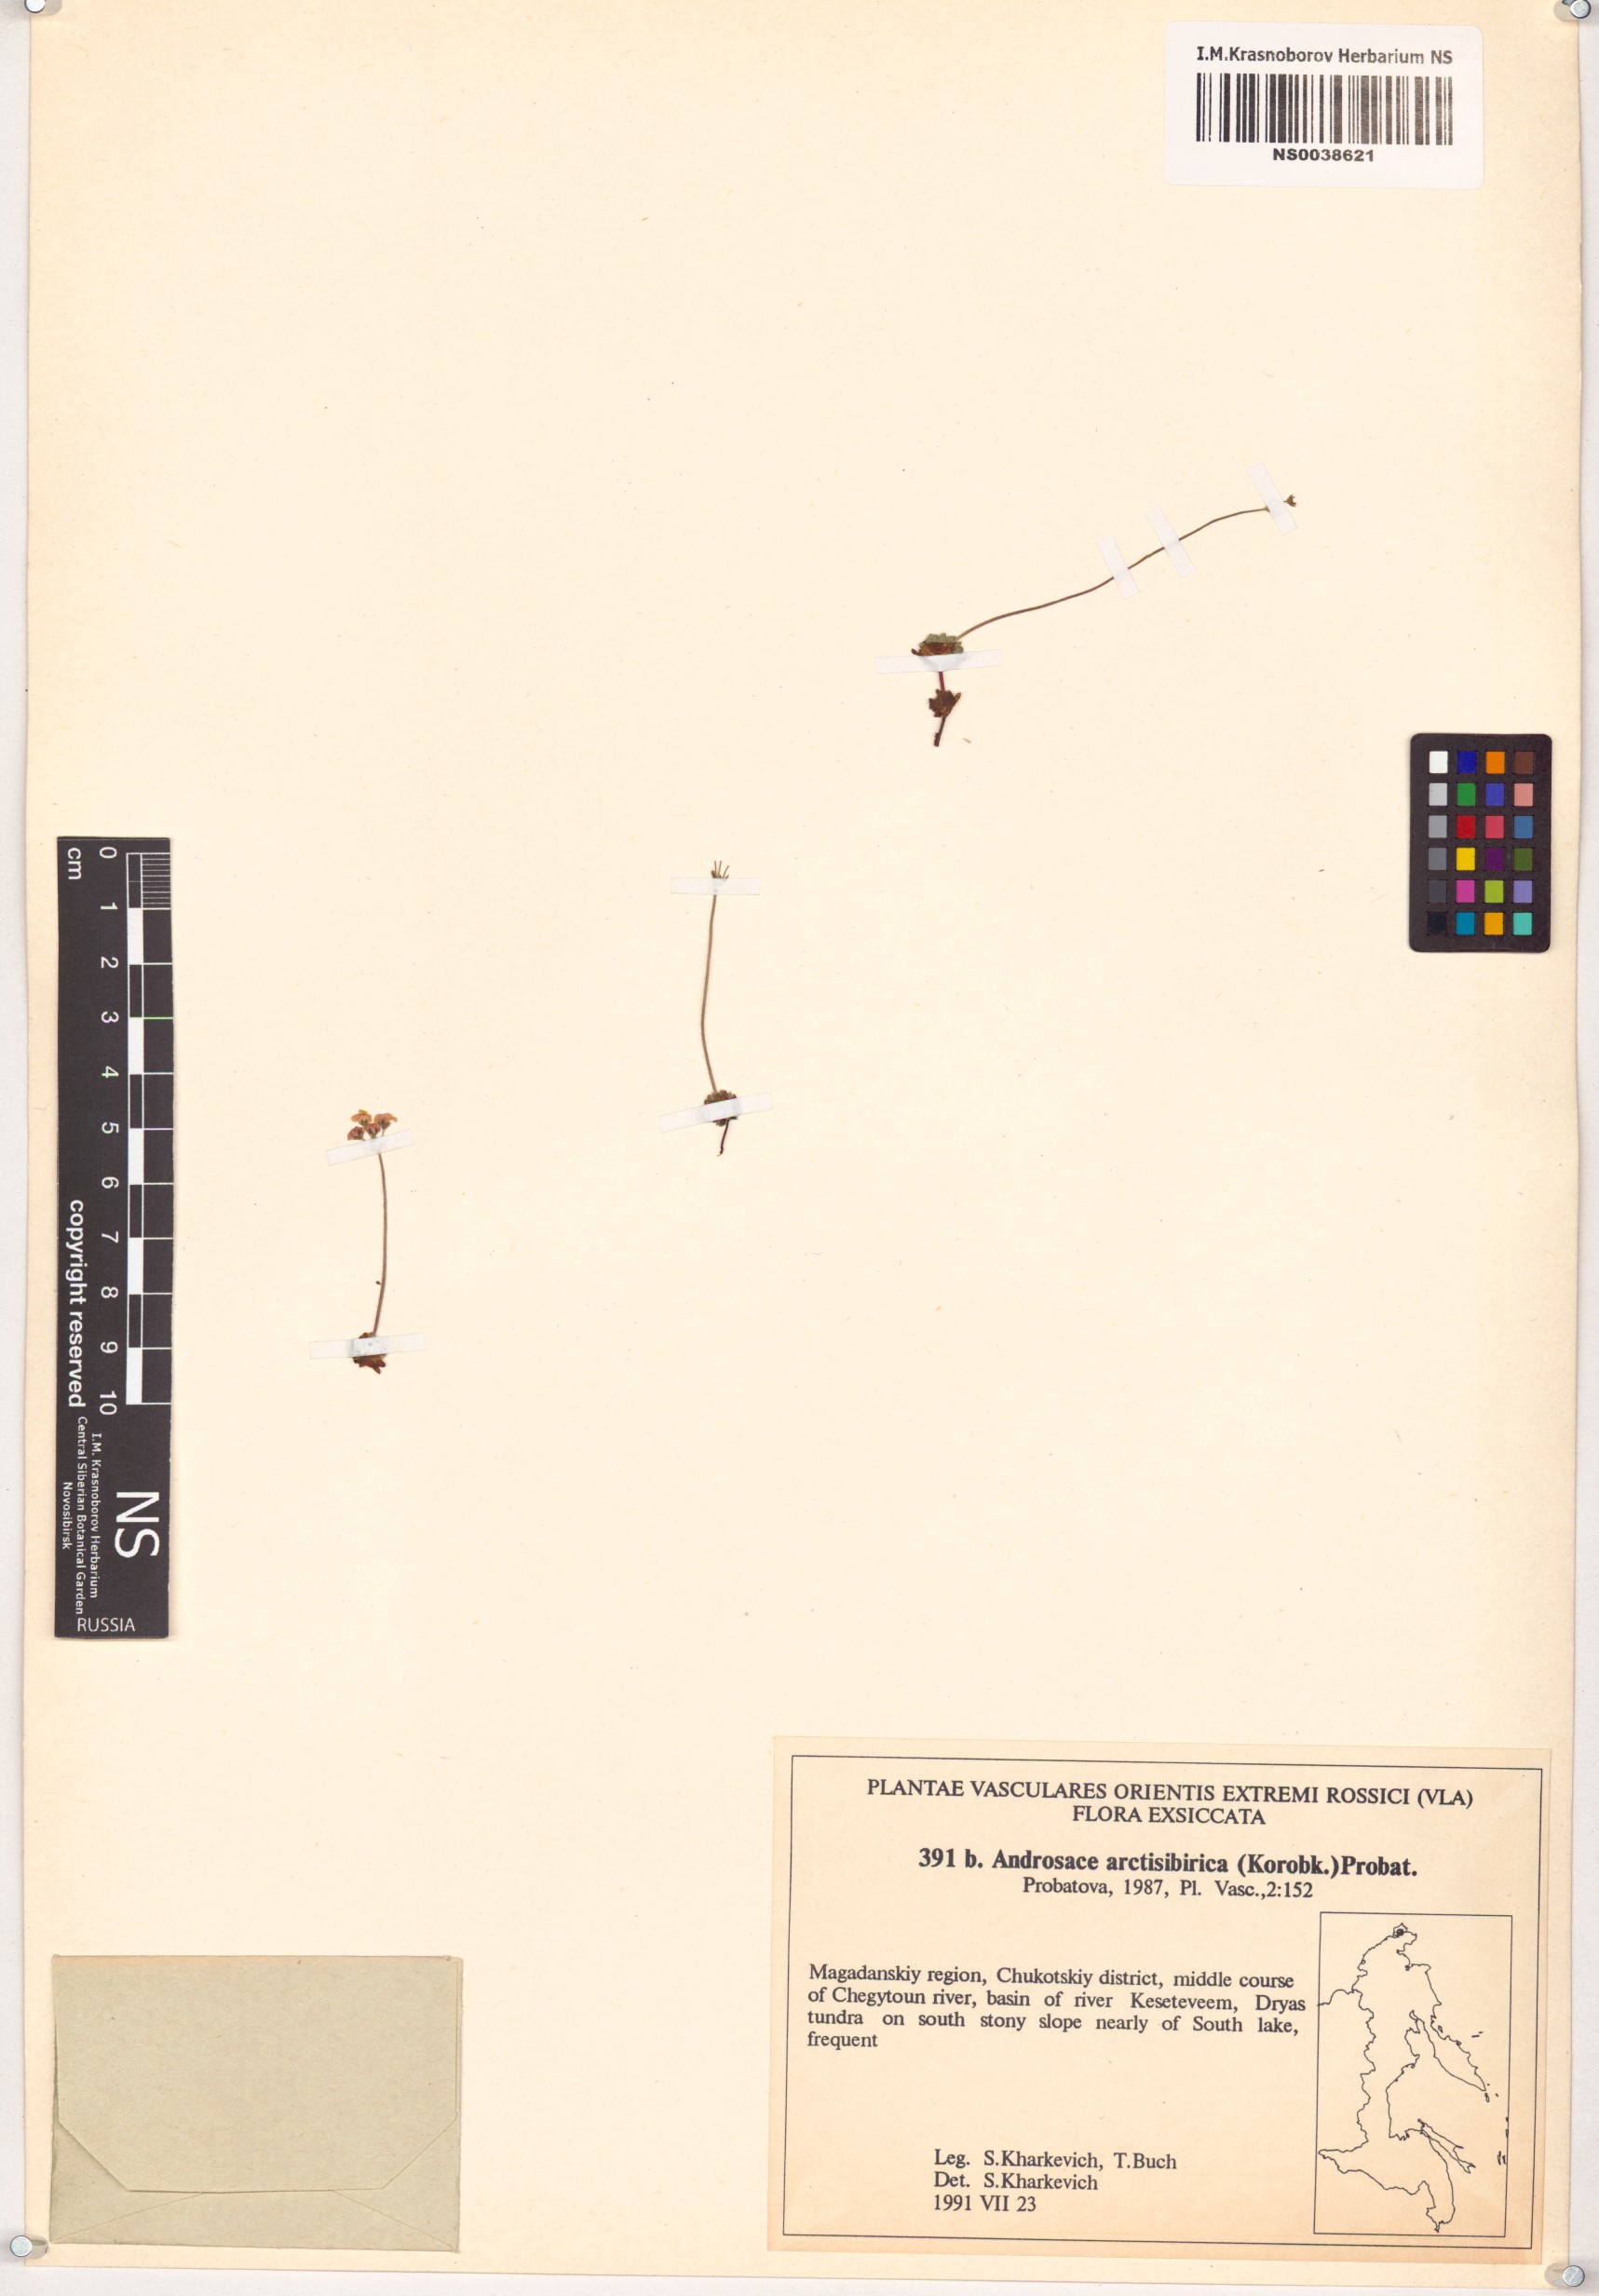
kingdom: Plantae
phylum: Tracheophyta
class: Magnoliopsida
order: Ericales
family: Primulaceae
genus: Androsace
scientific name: Androsace bungeana
